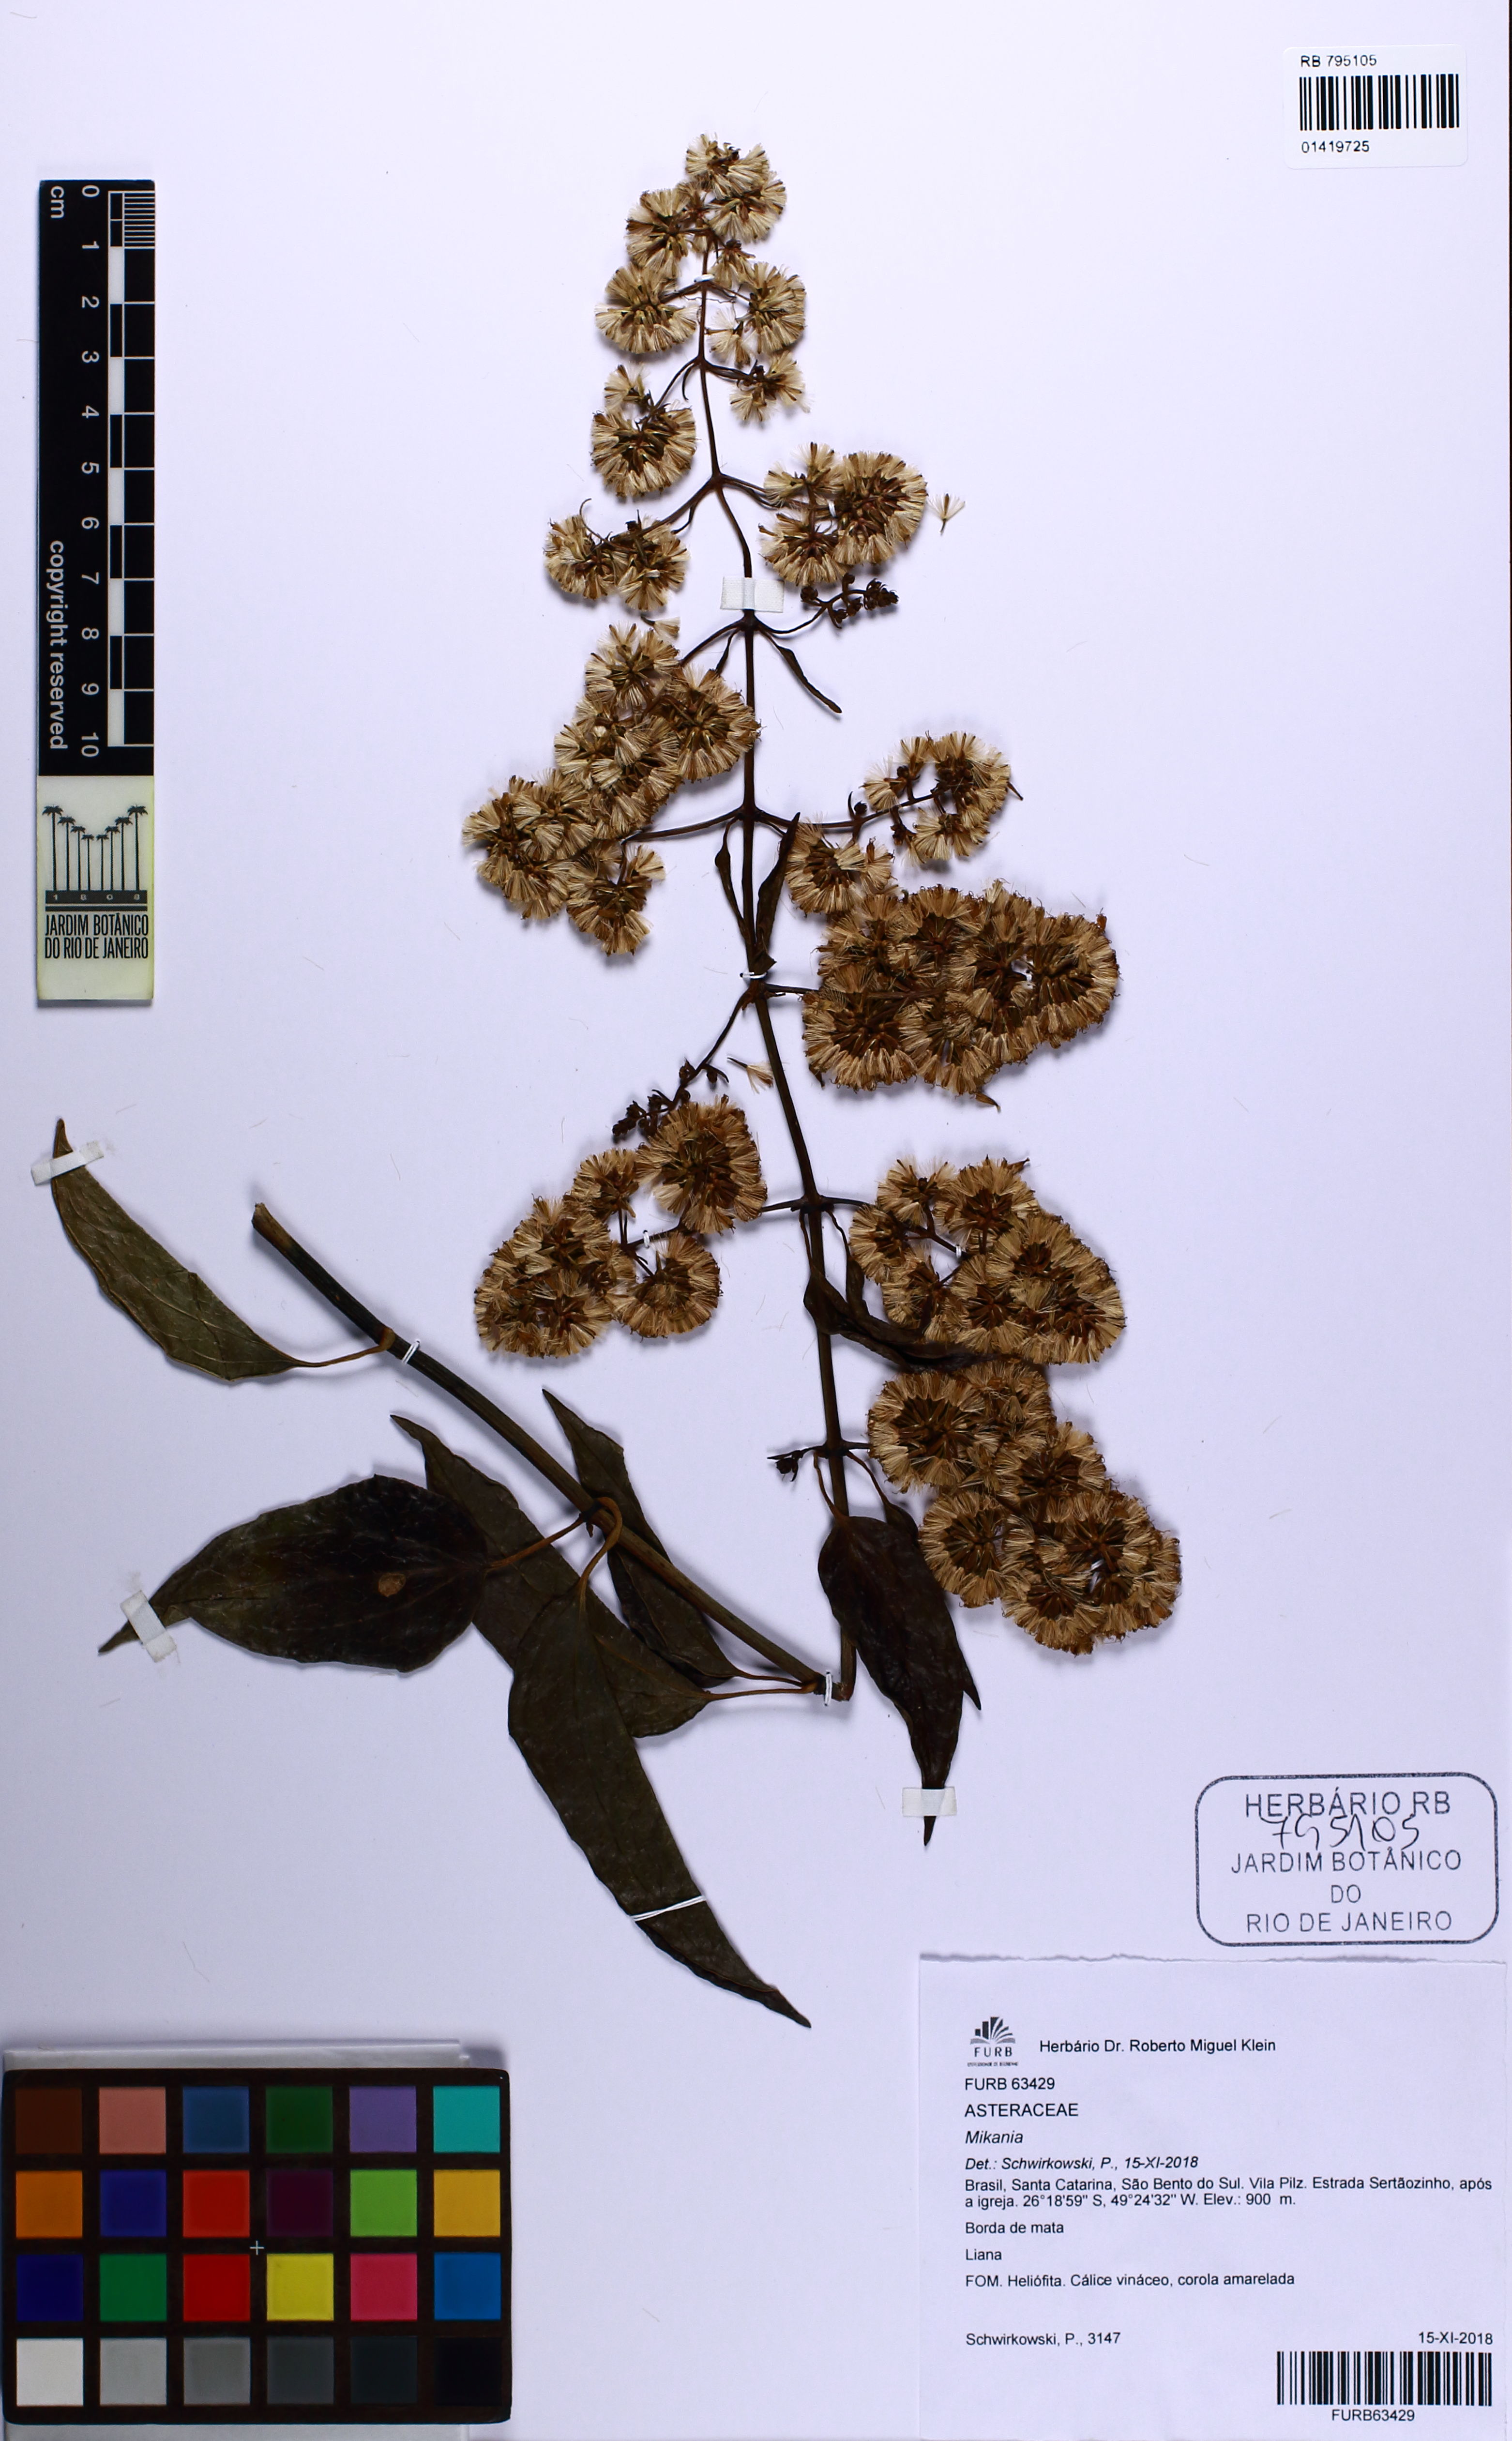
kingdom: Plantae
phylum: Tracheophyta
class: Magnoliopsida
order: Asterales
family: Asteraceae
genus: Mikania
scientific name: Mikania
